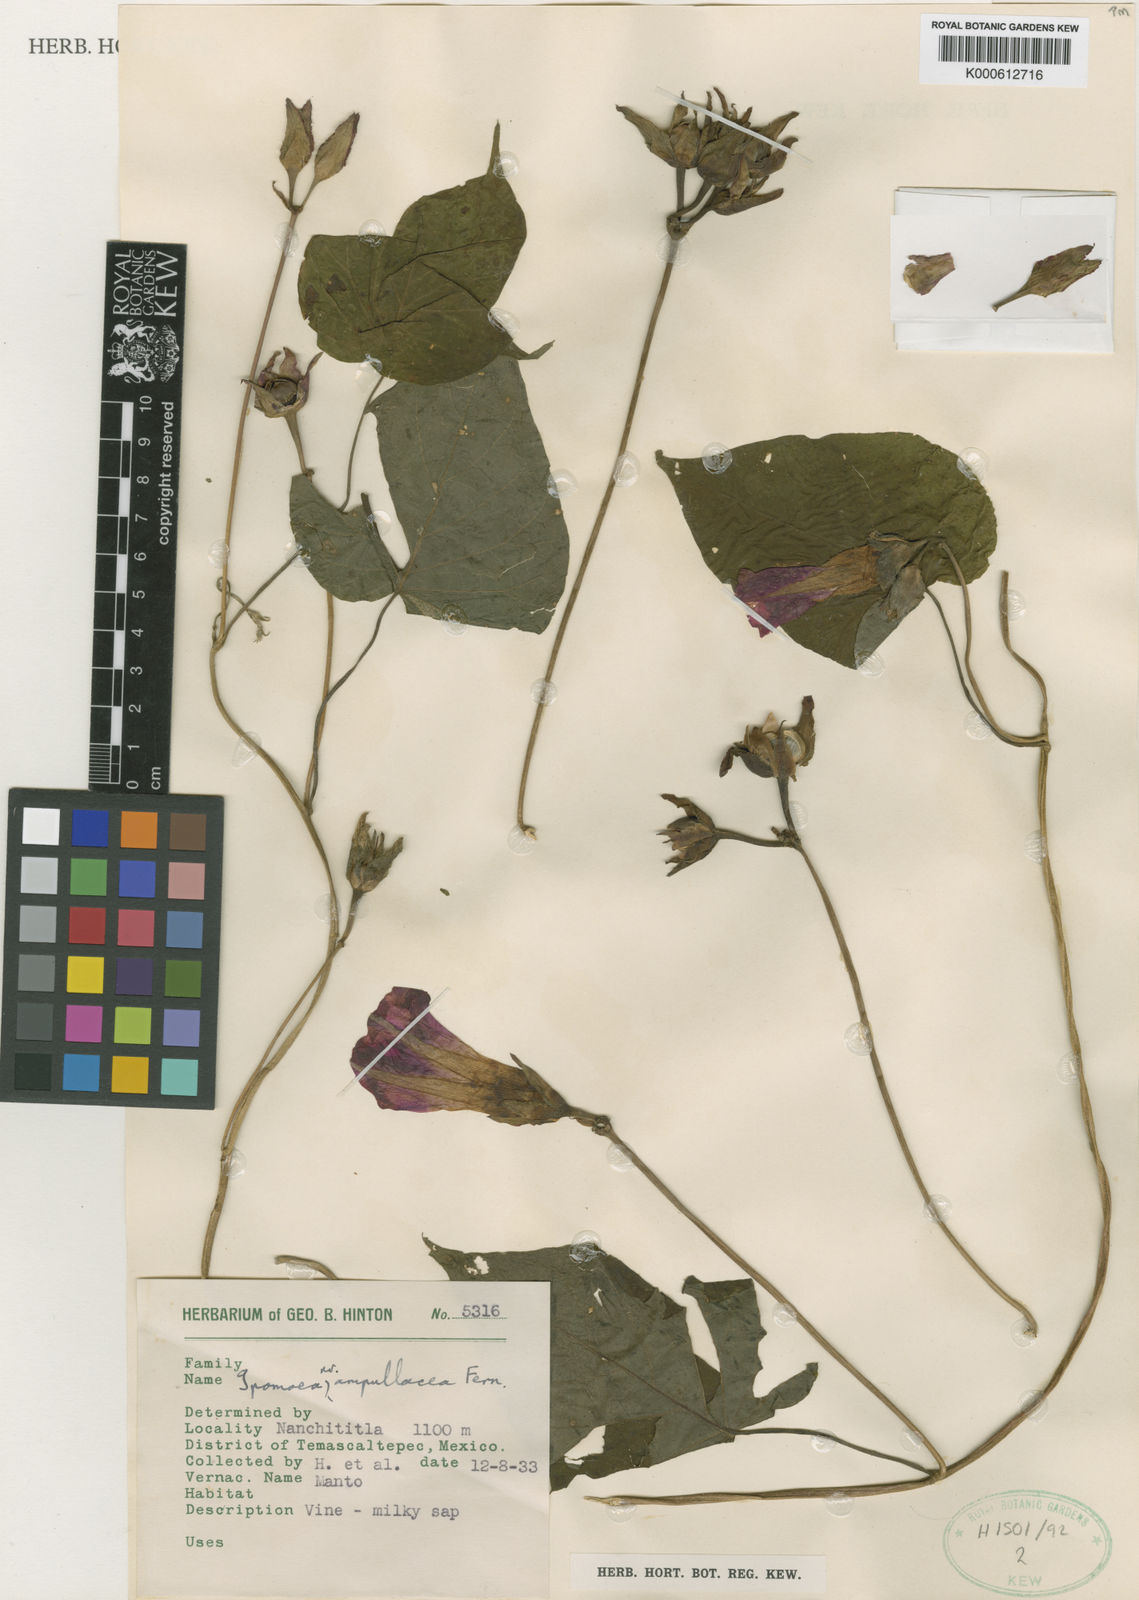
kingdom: Plantae
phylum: Tracheophyta
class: Magnoliopsida
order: Solanales
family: Convolvulaceae
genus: Ipomoea
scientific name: Ipomoea temascaltepecensis
